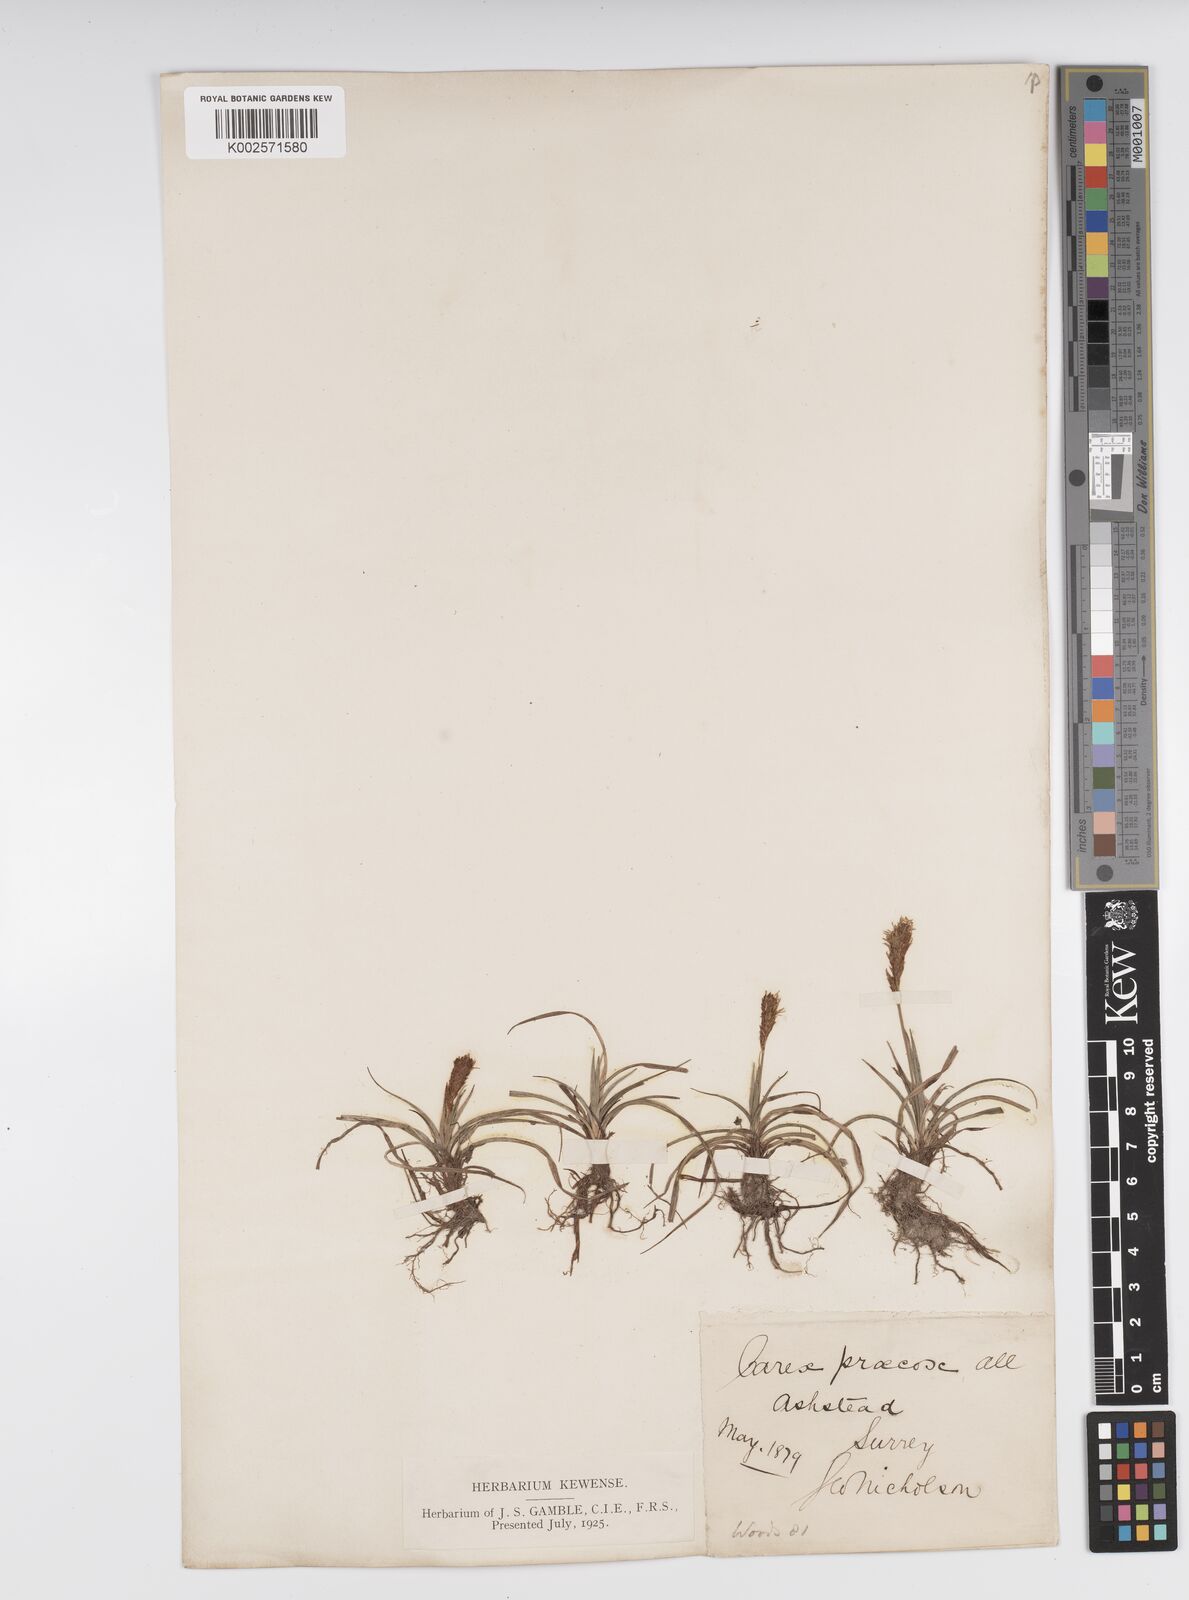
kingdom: Plantae
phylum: Tracheophyta
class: Liliopsida
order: Poales
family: Cyperaceae
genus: Carex
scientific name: Carex caryophyllea
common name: Spring sedge
